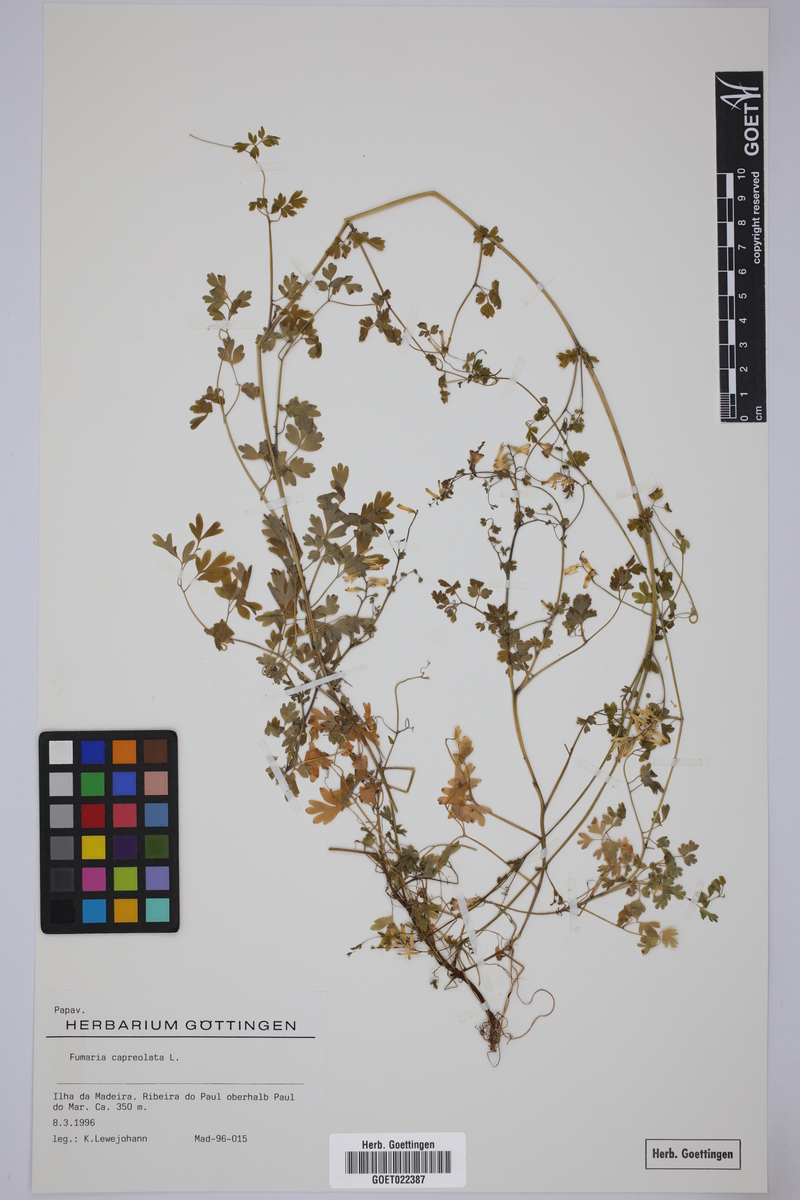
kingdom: Plantae
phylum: Tracheophyta
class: Magnoliopsida
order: Ranunculales
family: Papaveraceae
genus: Fumaria
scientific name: Fumaria capreolata
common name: White ramping-fumitory
